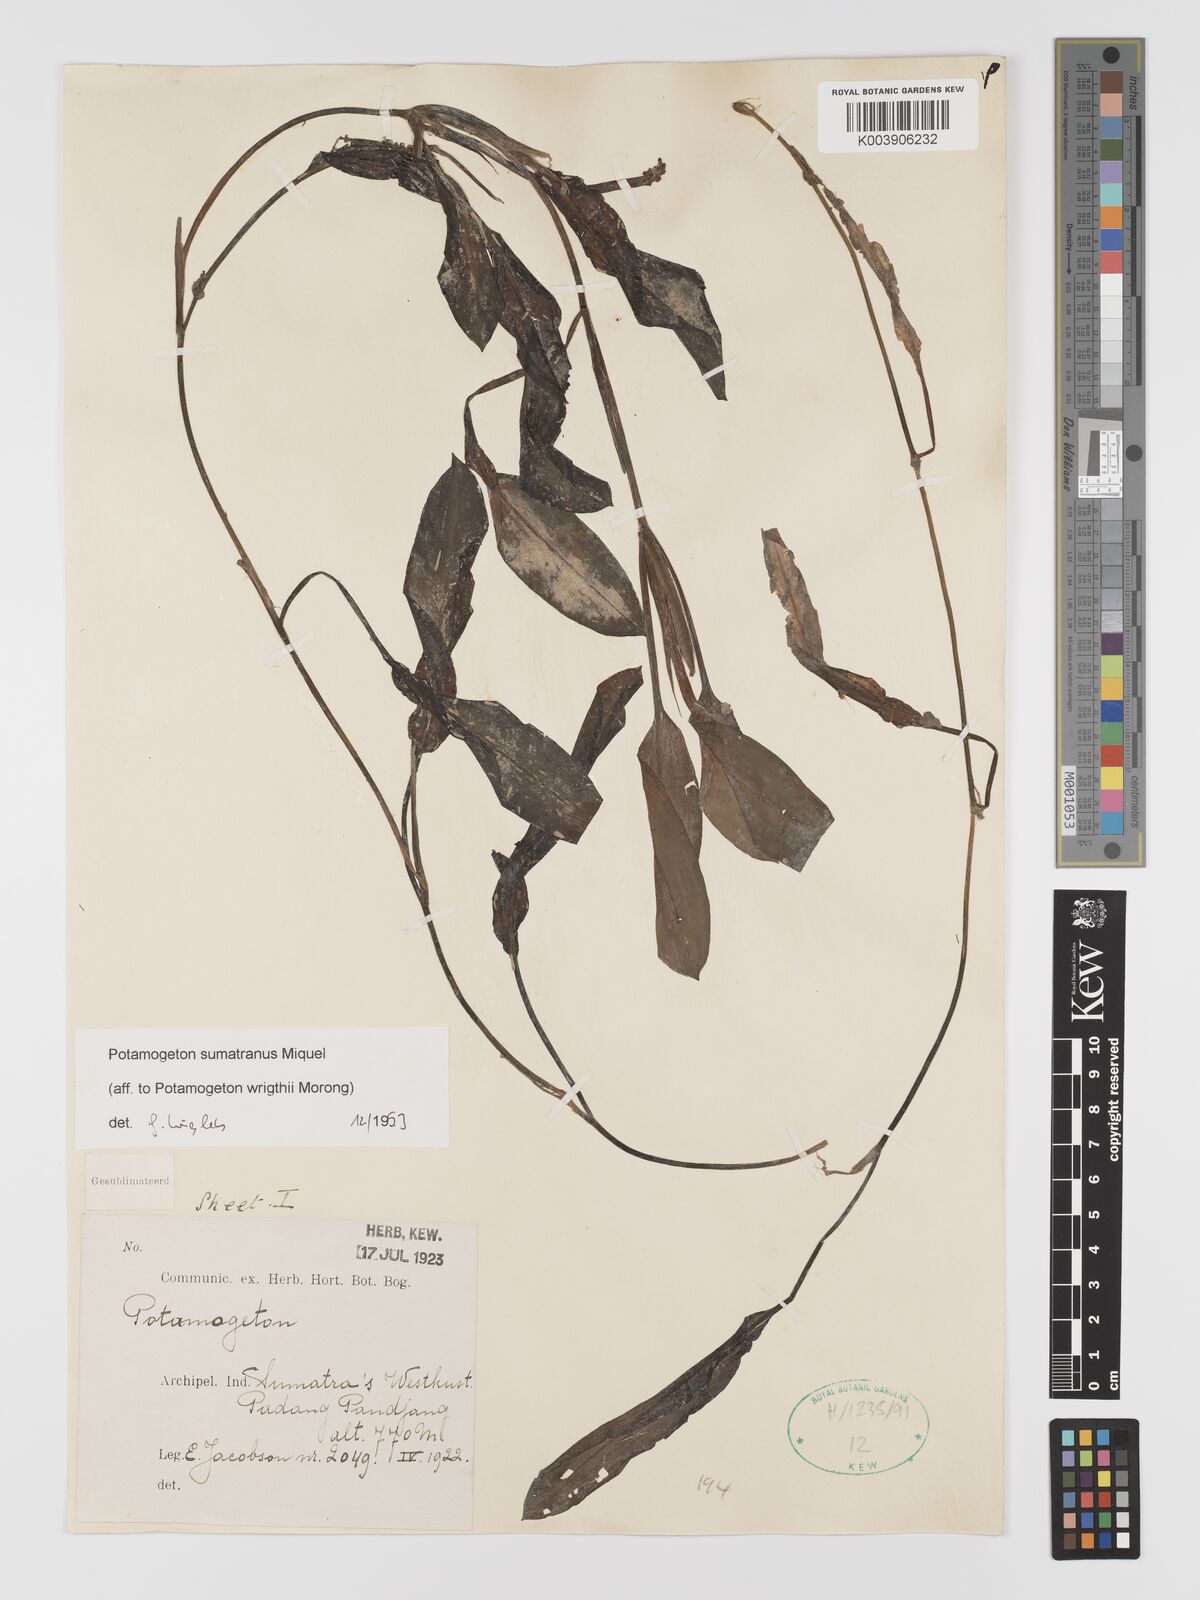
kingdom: Plantae
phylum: Tracheophyta
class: Liliopsida
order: Alismatales
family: Potamogetonaceae
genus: Potamogeton
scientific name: Potamogeton
